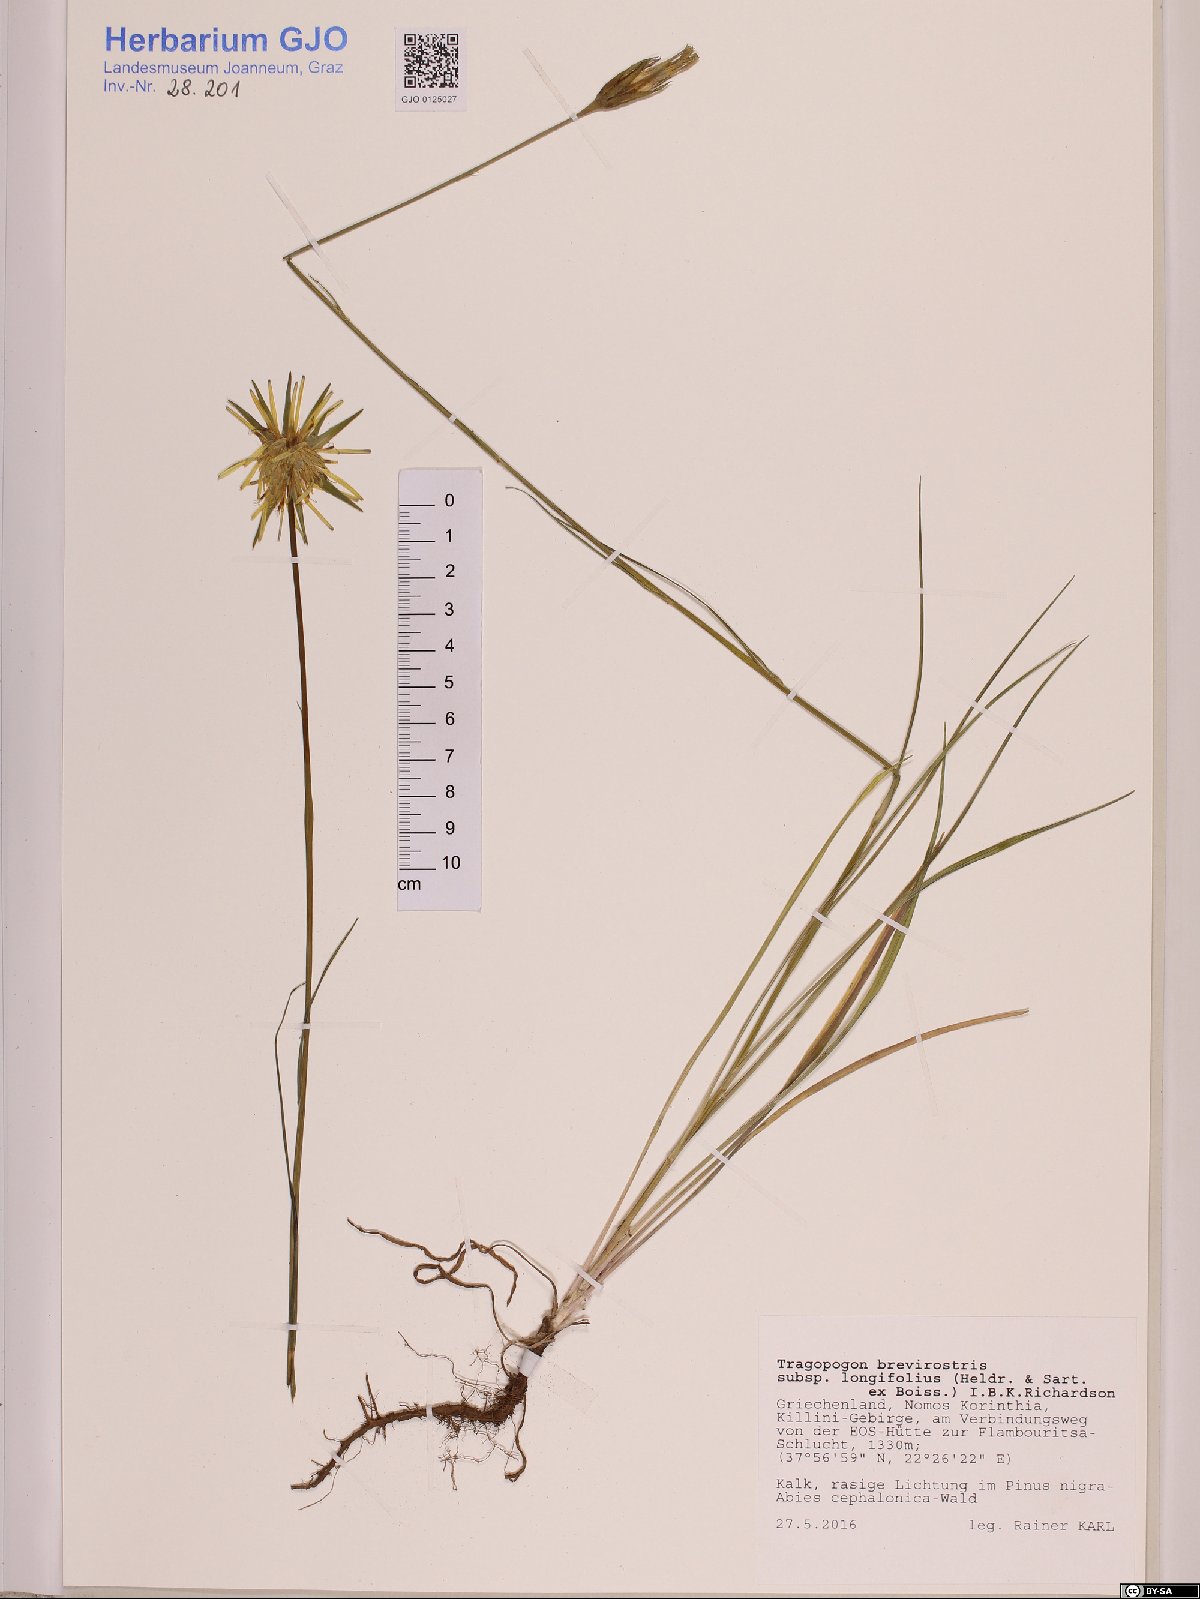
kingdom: Plantae
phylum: Tracheophyta
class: Magnoliopsida
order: Asterales
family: Asteraceae
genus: Tragopogon
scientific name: Tragopogon longifolius
